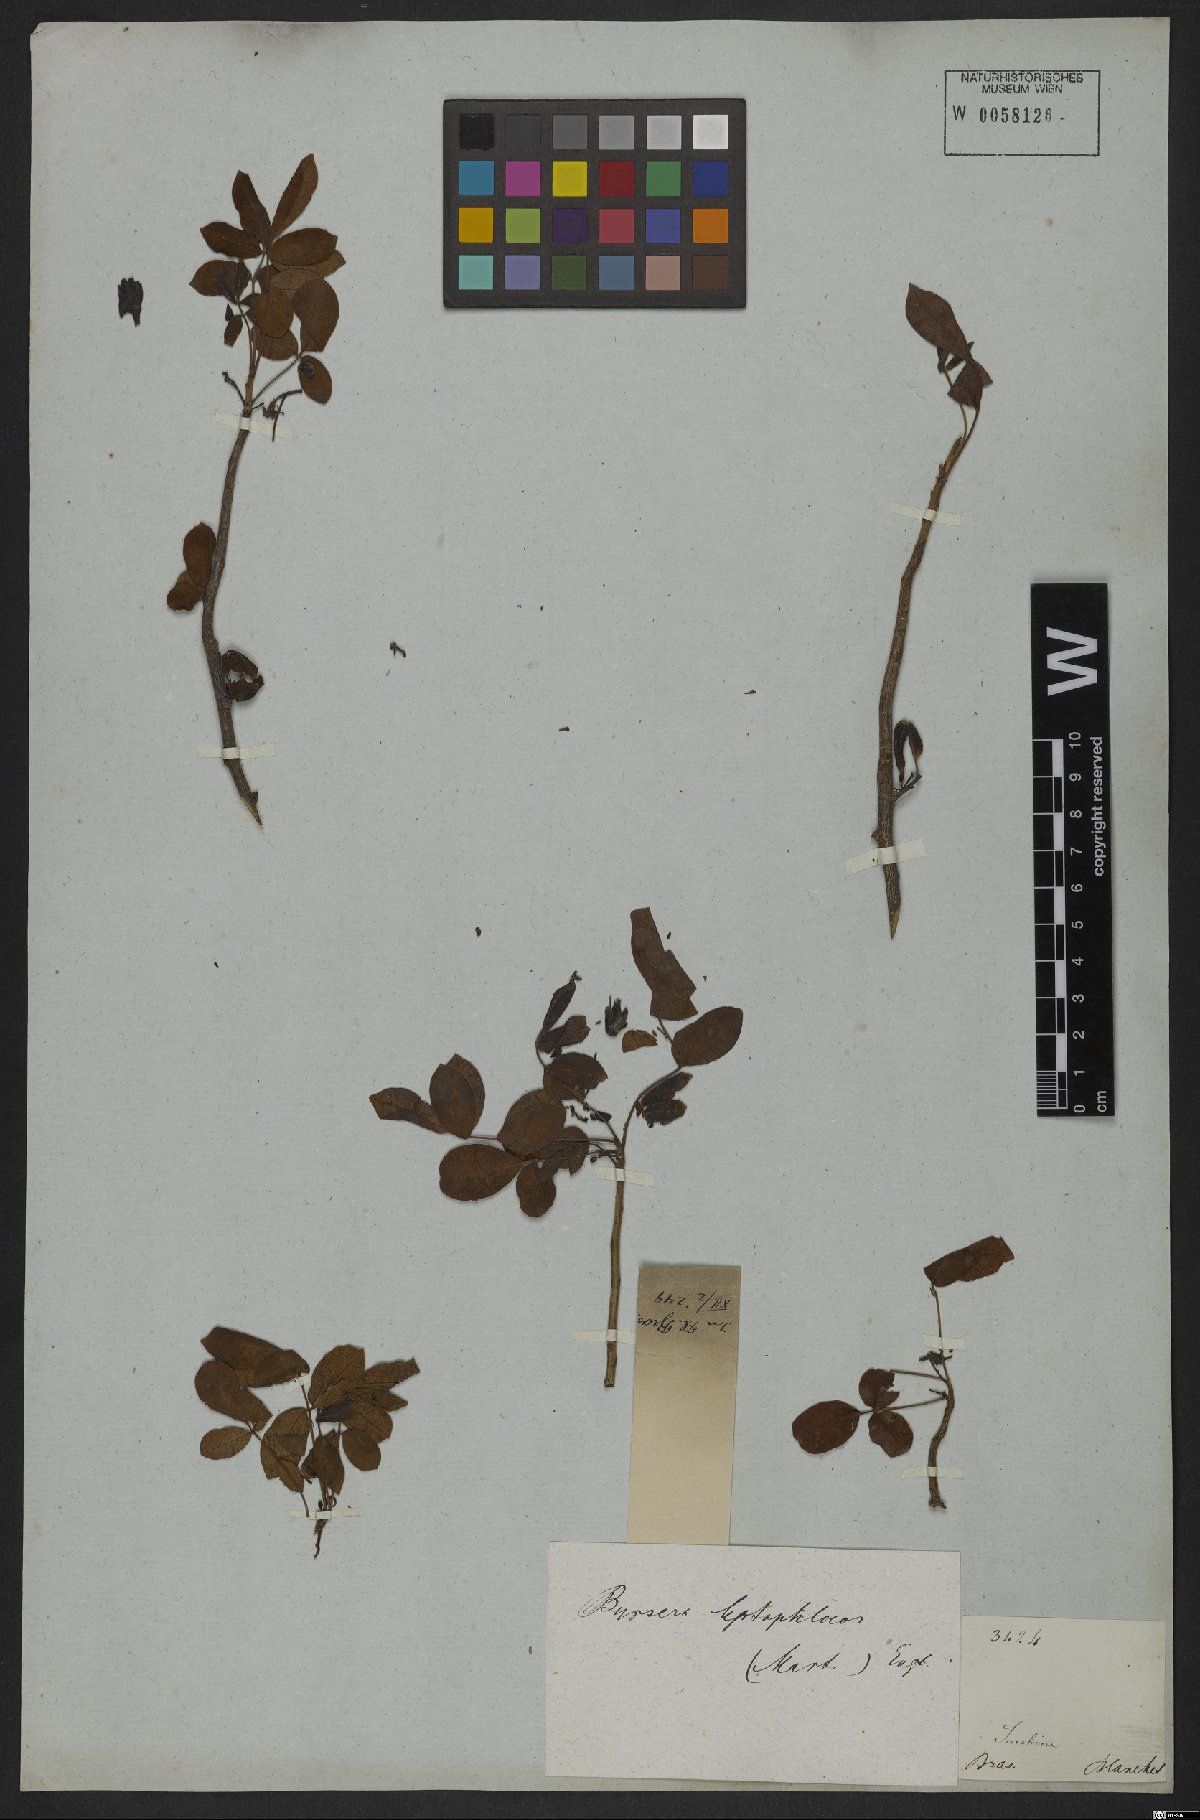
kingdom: Plantae
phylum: Tracheophyta
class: Magnoliopsida
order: Sapindales
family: Burseraceae
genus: Bursera
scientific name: Bursera leptophloeos
